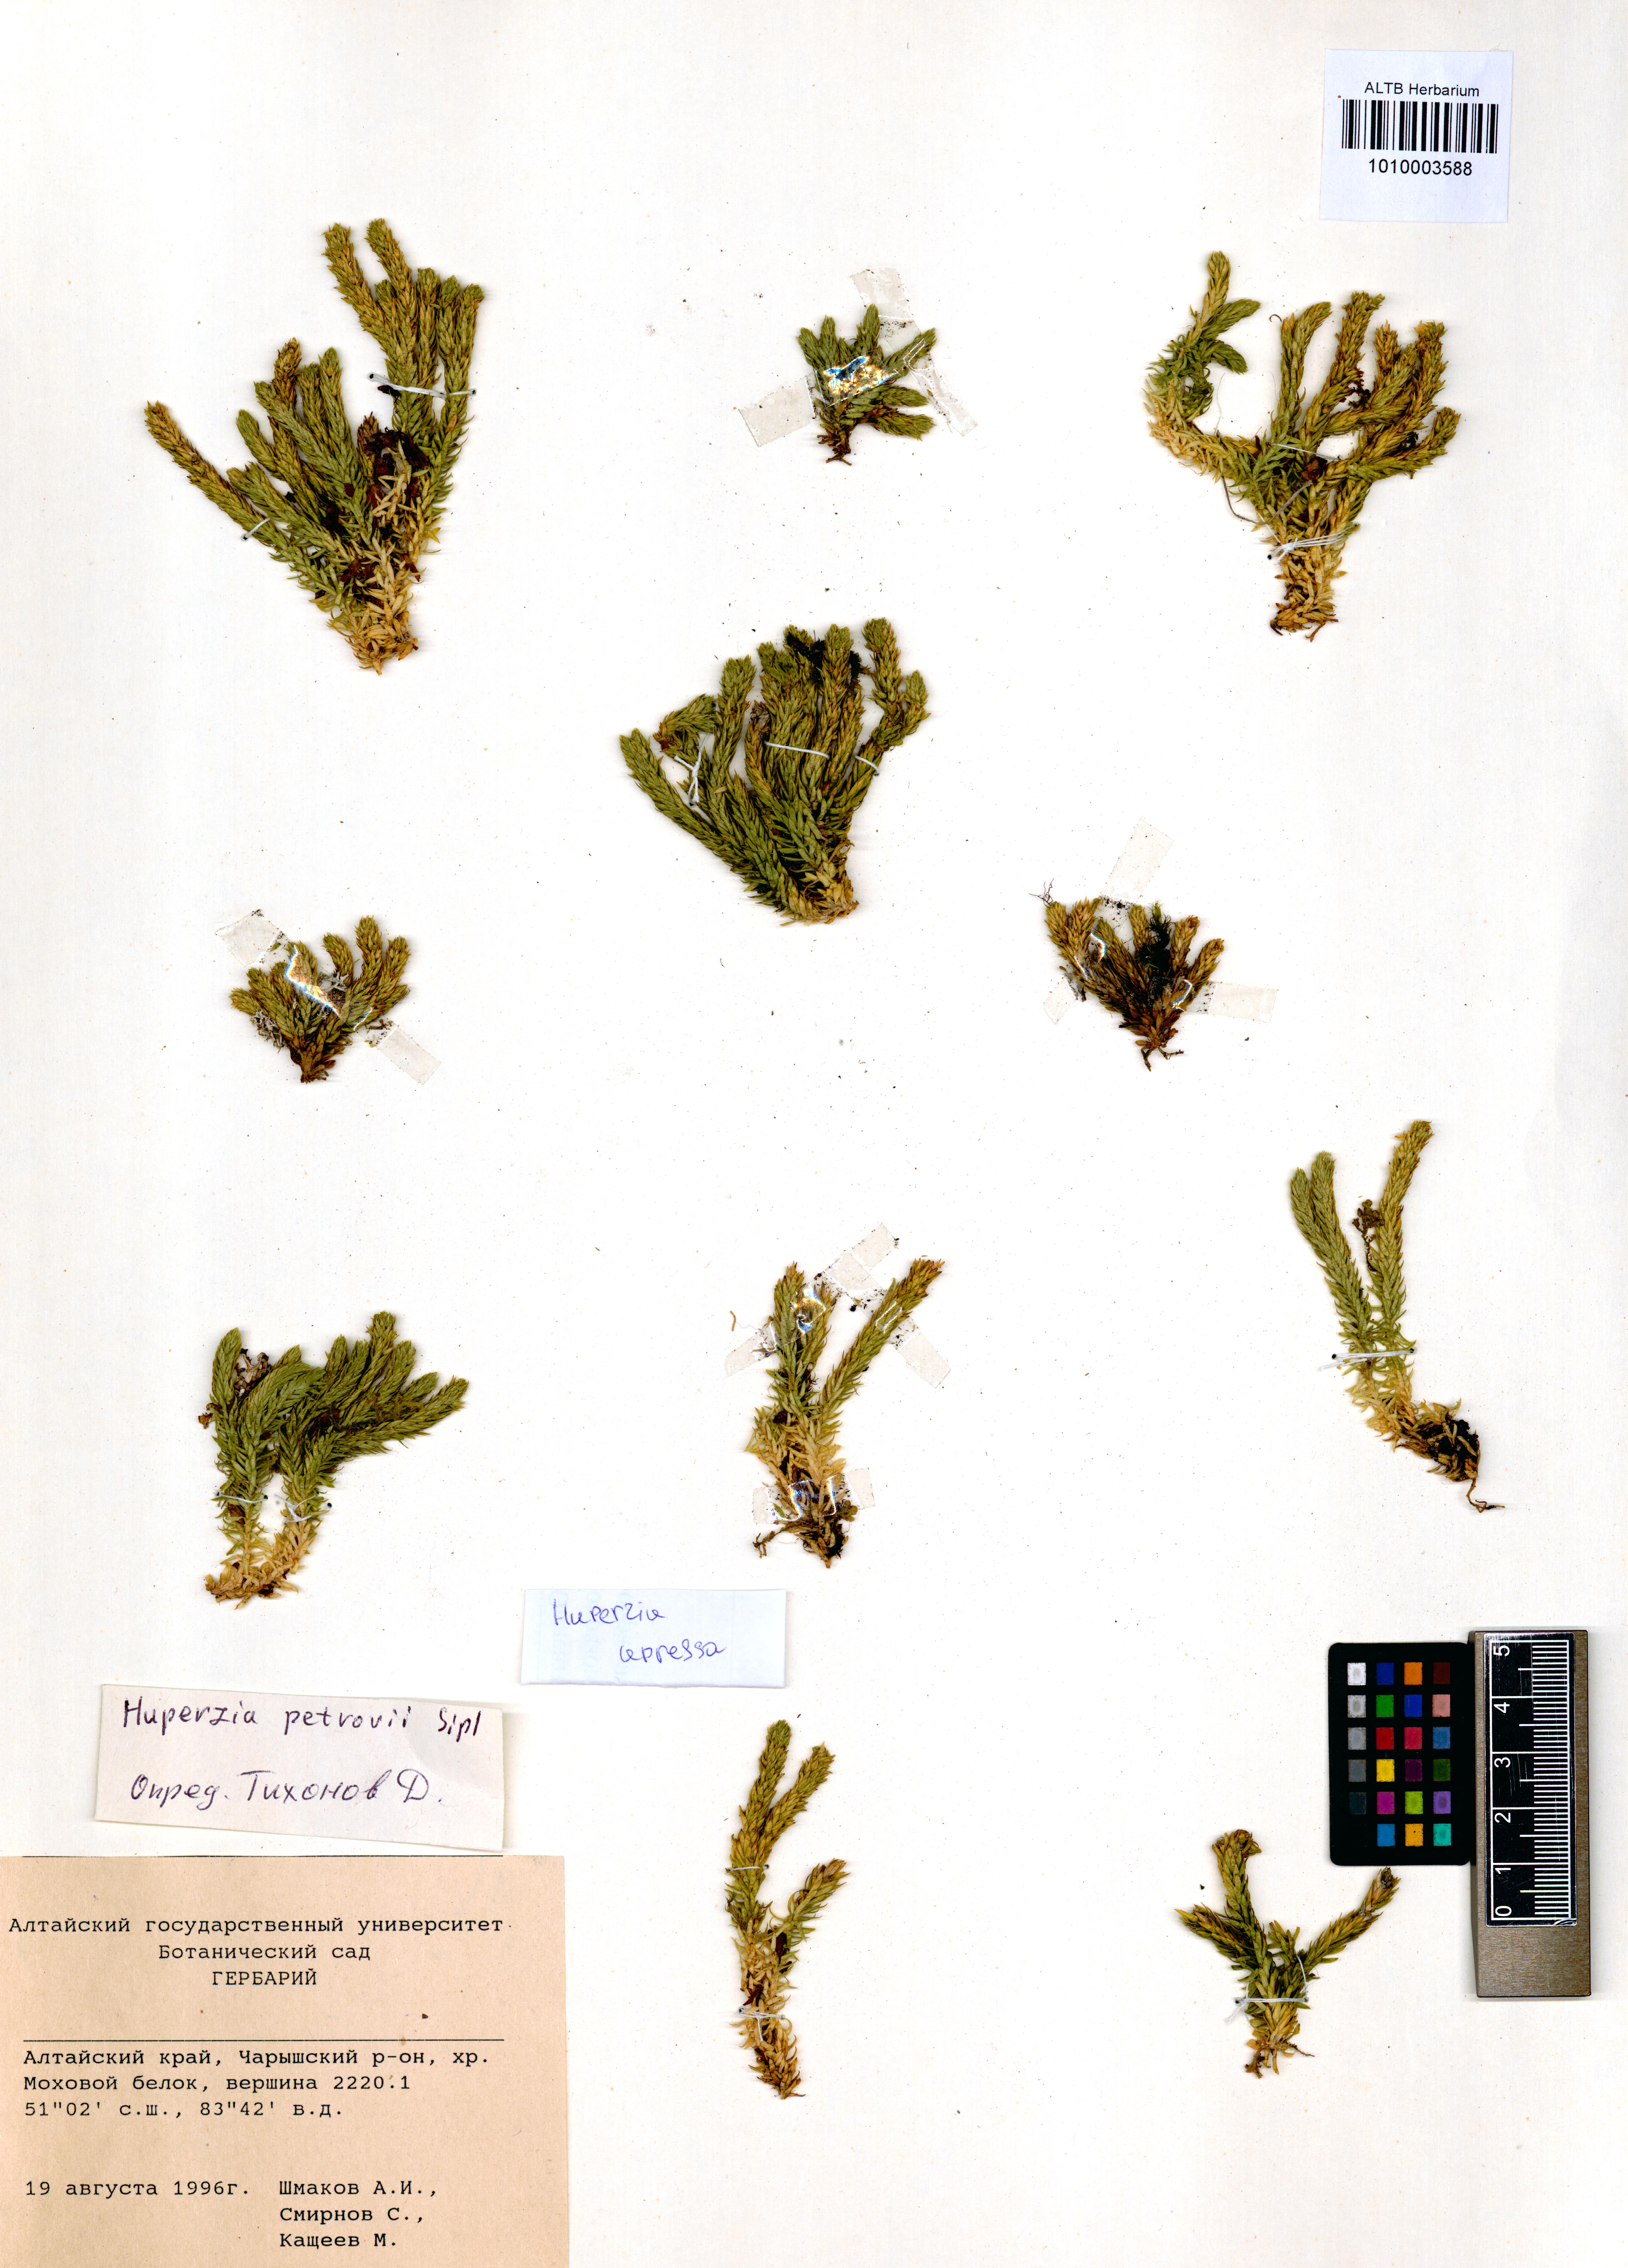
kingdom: Plantae
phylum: Tracheophyta
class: Lycopodiopsida
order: Lycopodiales
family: Lycopodiaceae
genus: Huperzia
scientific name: Huperzia selago
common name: Northern firmoss
